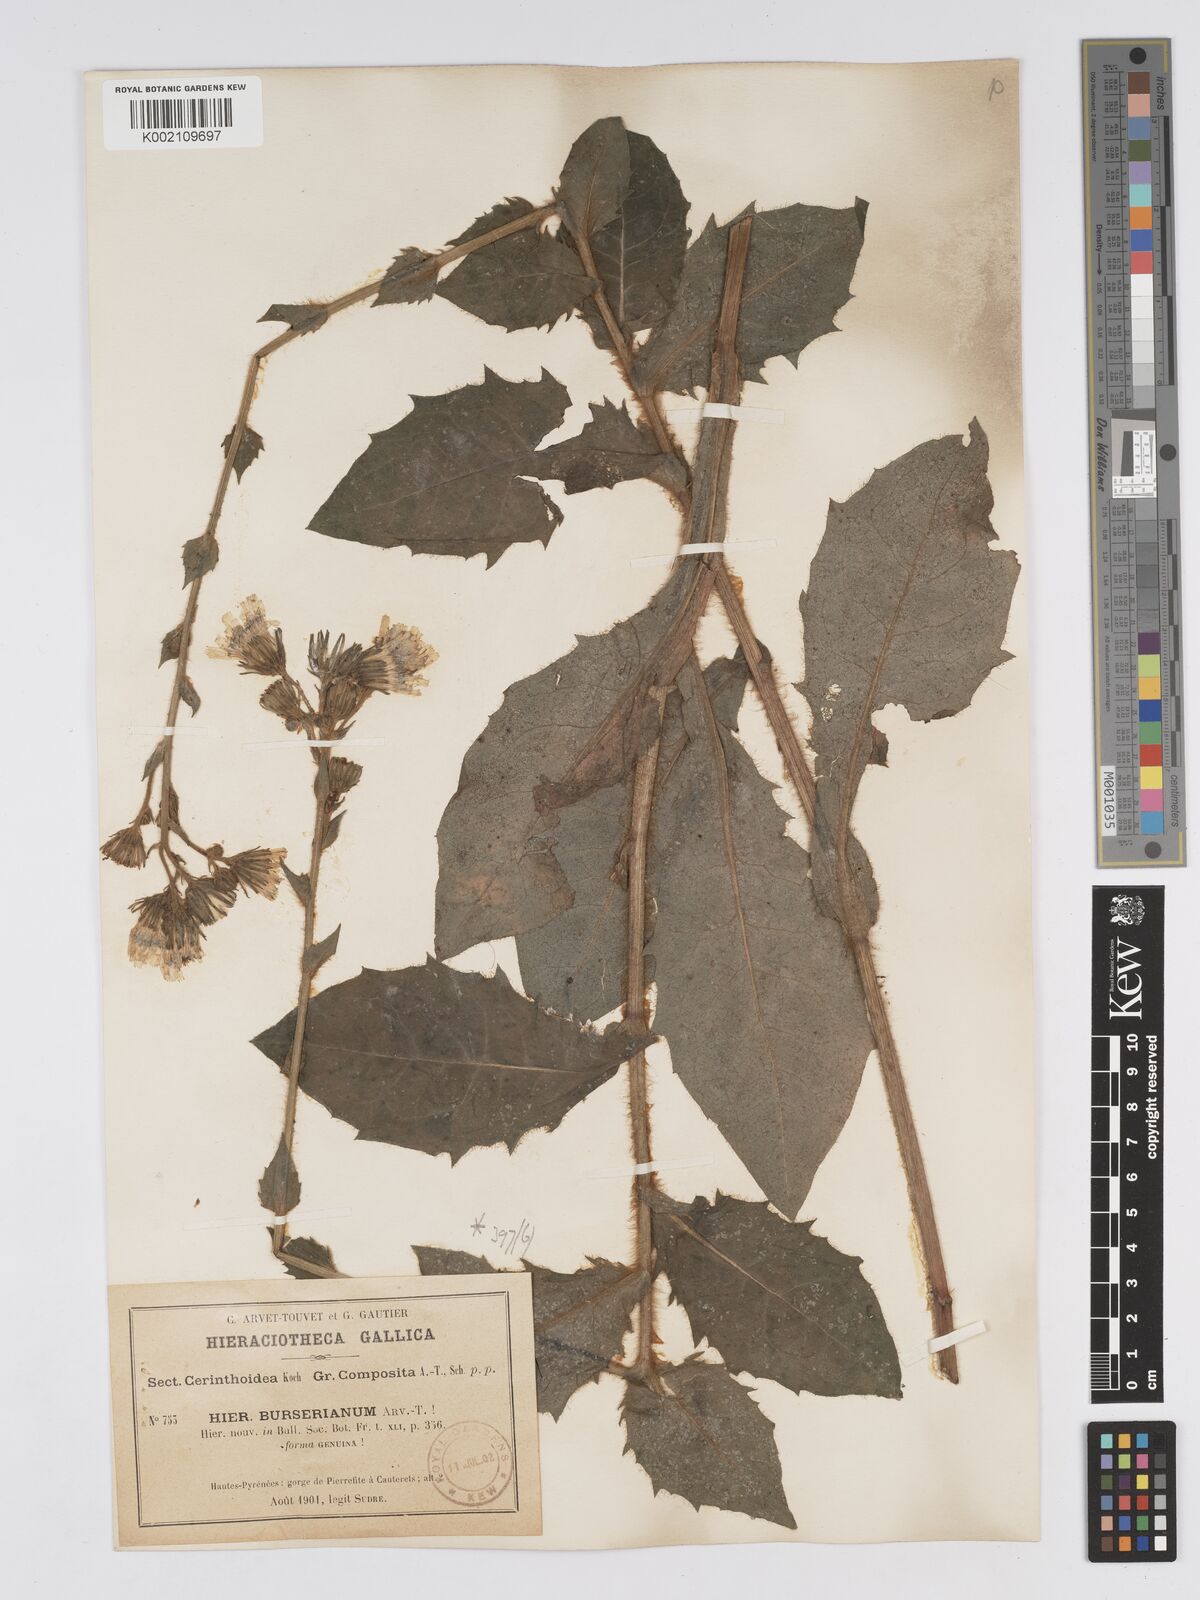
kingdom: Plantae
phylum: Tracheophyta
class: Magnoliopsida
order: Asterales
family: Asteraceae
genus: Hieracium
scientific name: Hieracium nobile
